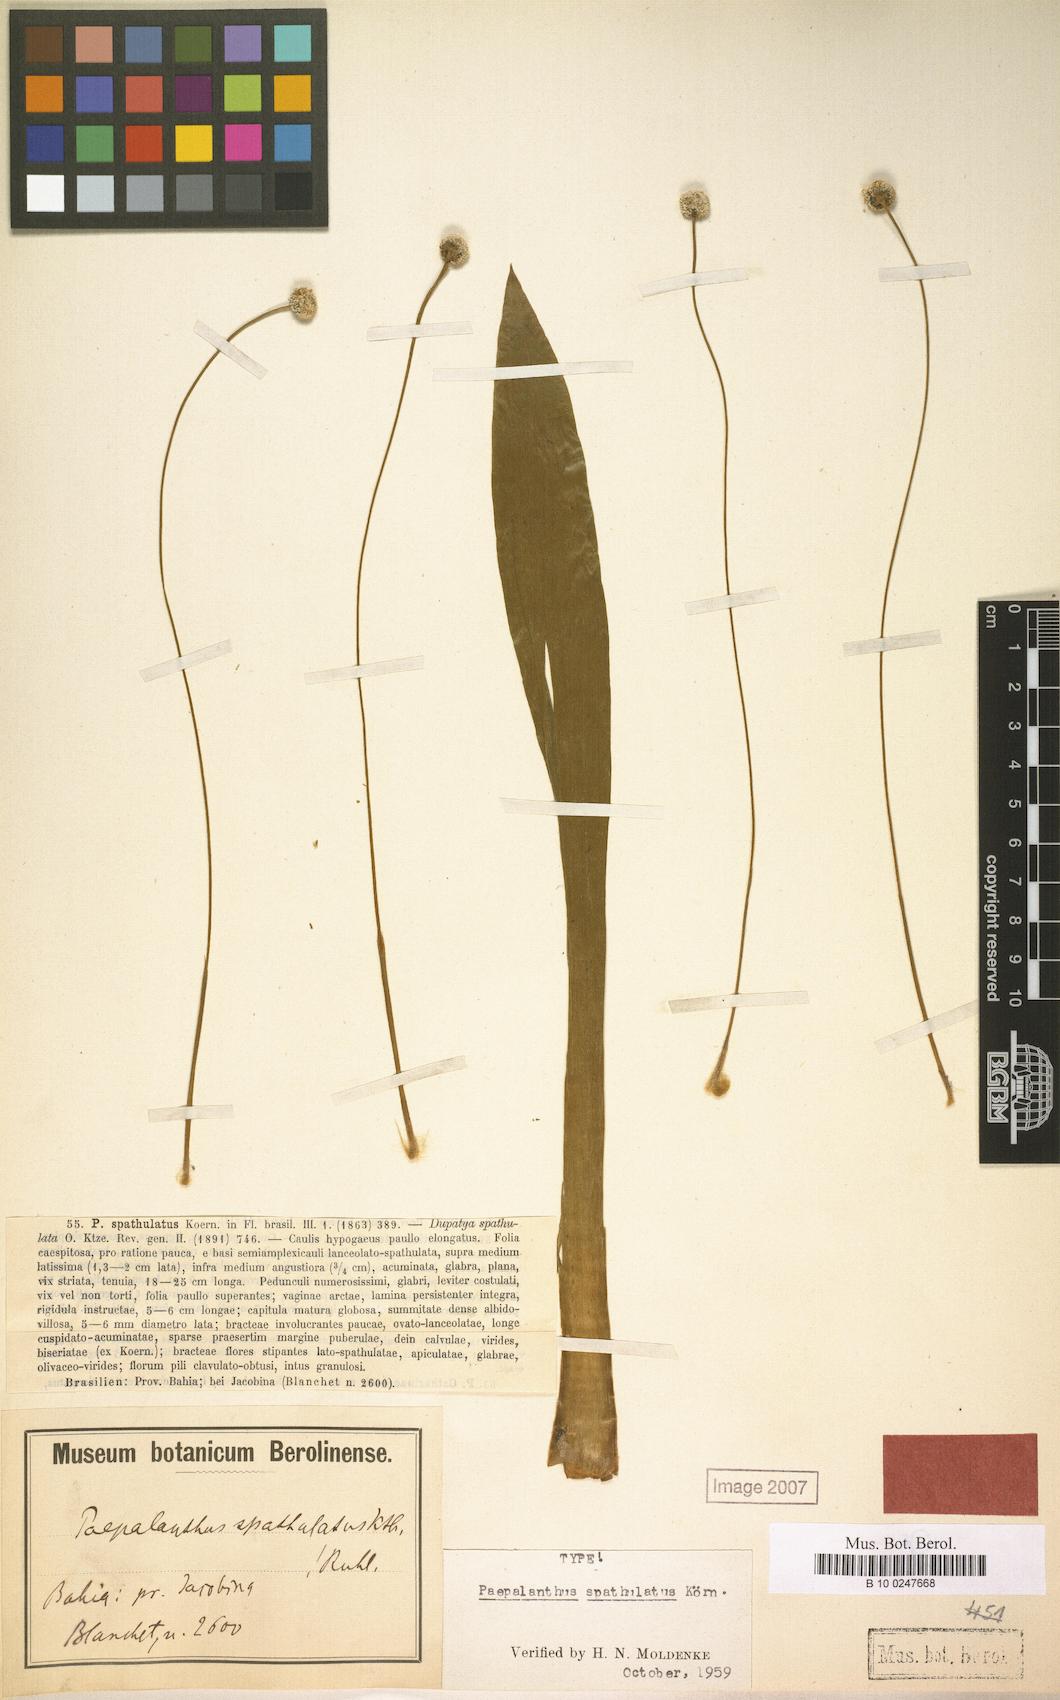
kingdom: Plantae
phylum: Tracheophyta
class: Liliopsida
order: Poales
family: Eriocaulaceae
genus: Paepalanthus
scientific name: Paepalanthus spathulatus
